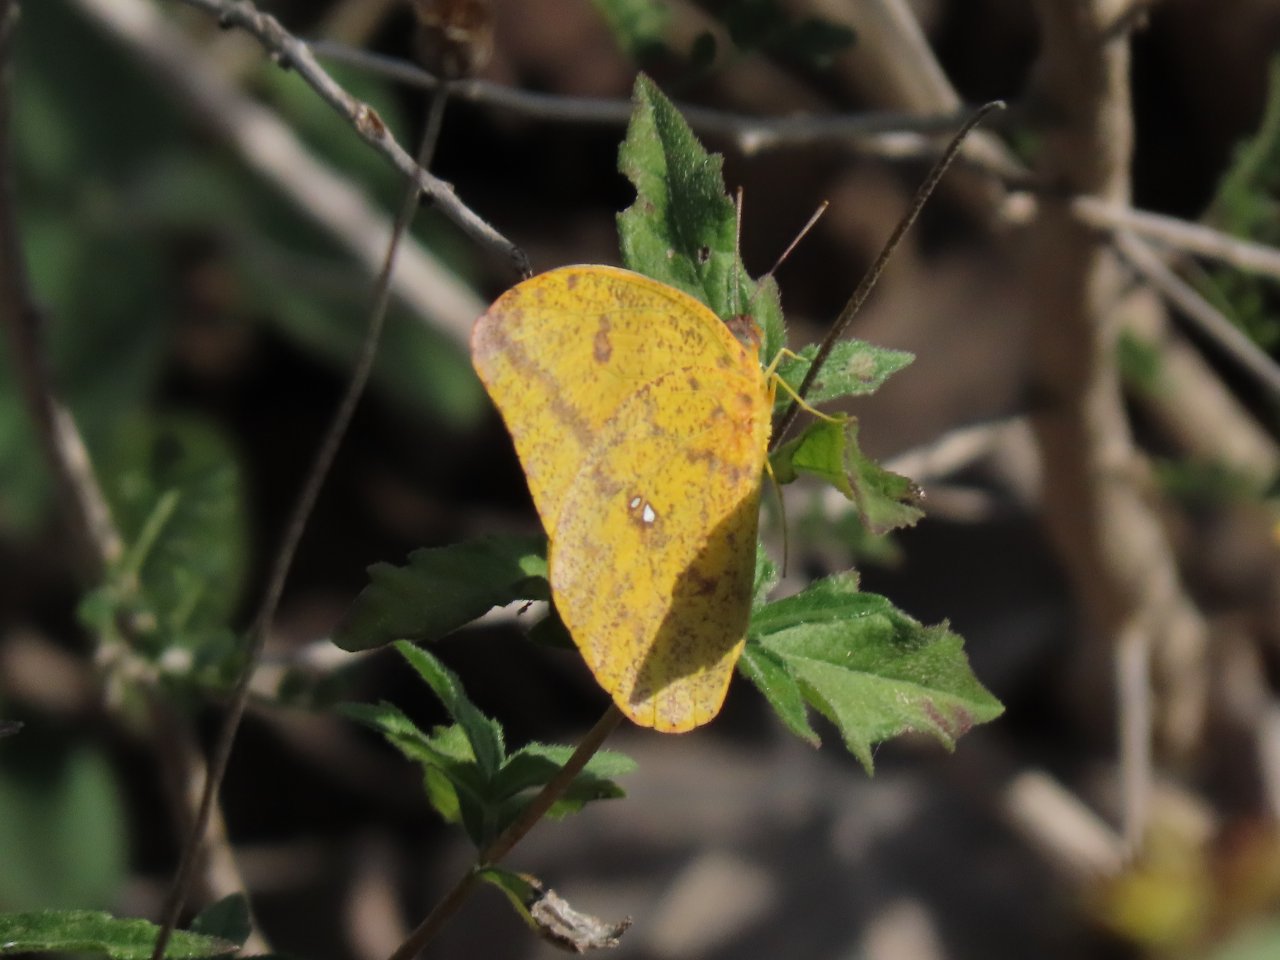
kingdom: Animalia
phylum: Arthropoda
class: Insecta
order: Lepidoptera
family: Hesperiidae
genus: Erynnis
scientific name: Erynnis funeralis
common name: Funereal Duskywing
